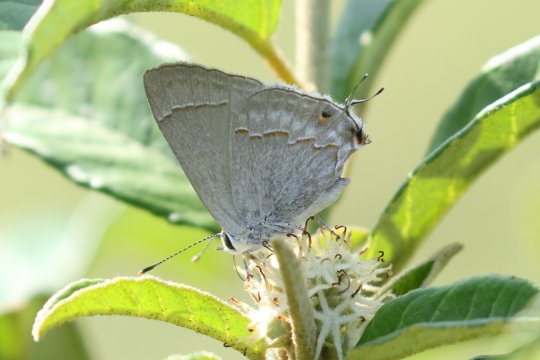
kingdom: Animalia
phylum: Arthropoda
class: Insecta
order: Lepidoptera
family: Lycaenidae
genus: Thecla
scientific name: Thecla bebrycia
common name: Red-lined Scrub-Hairstreak
